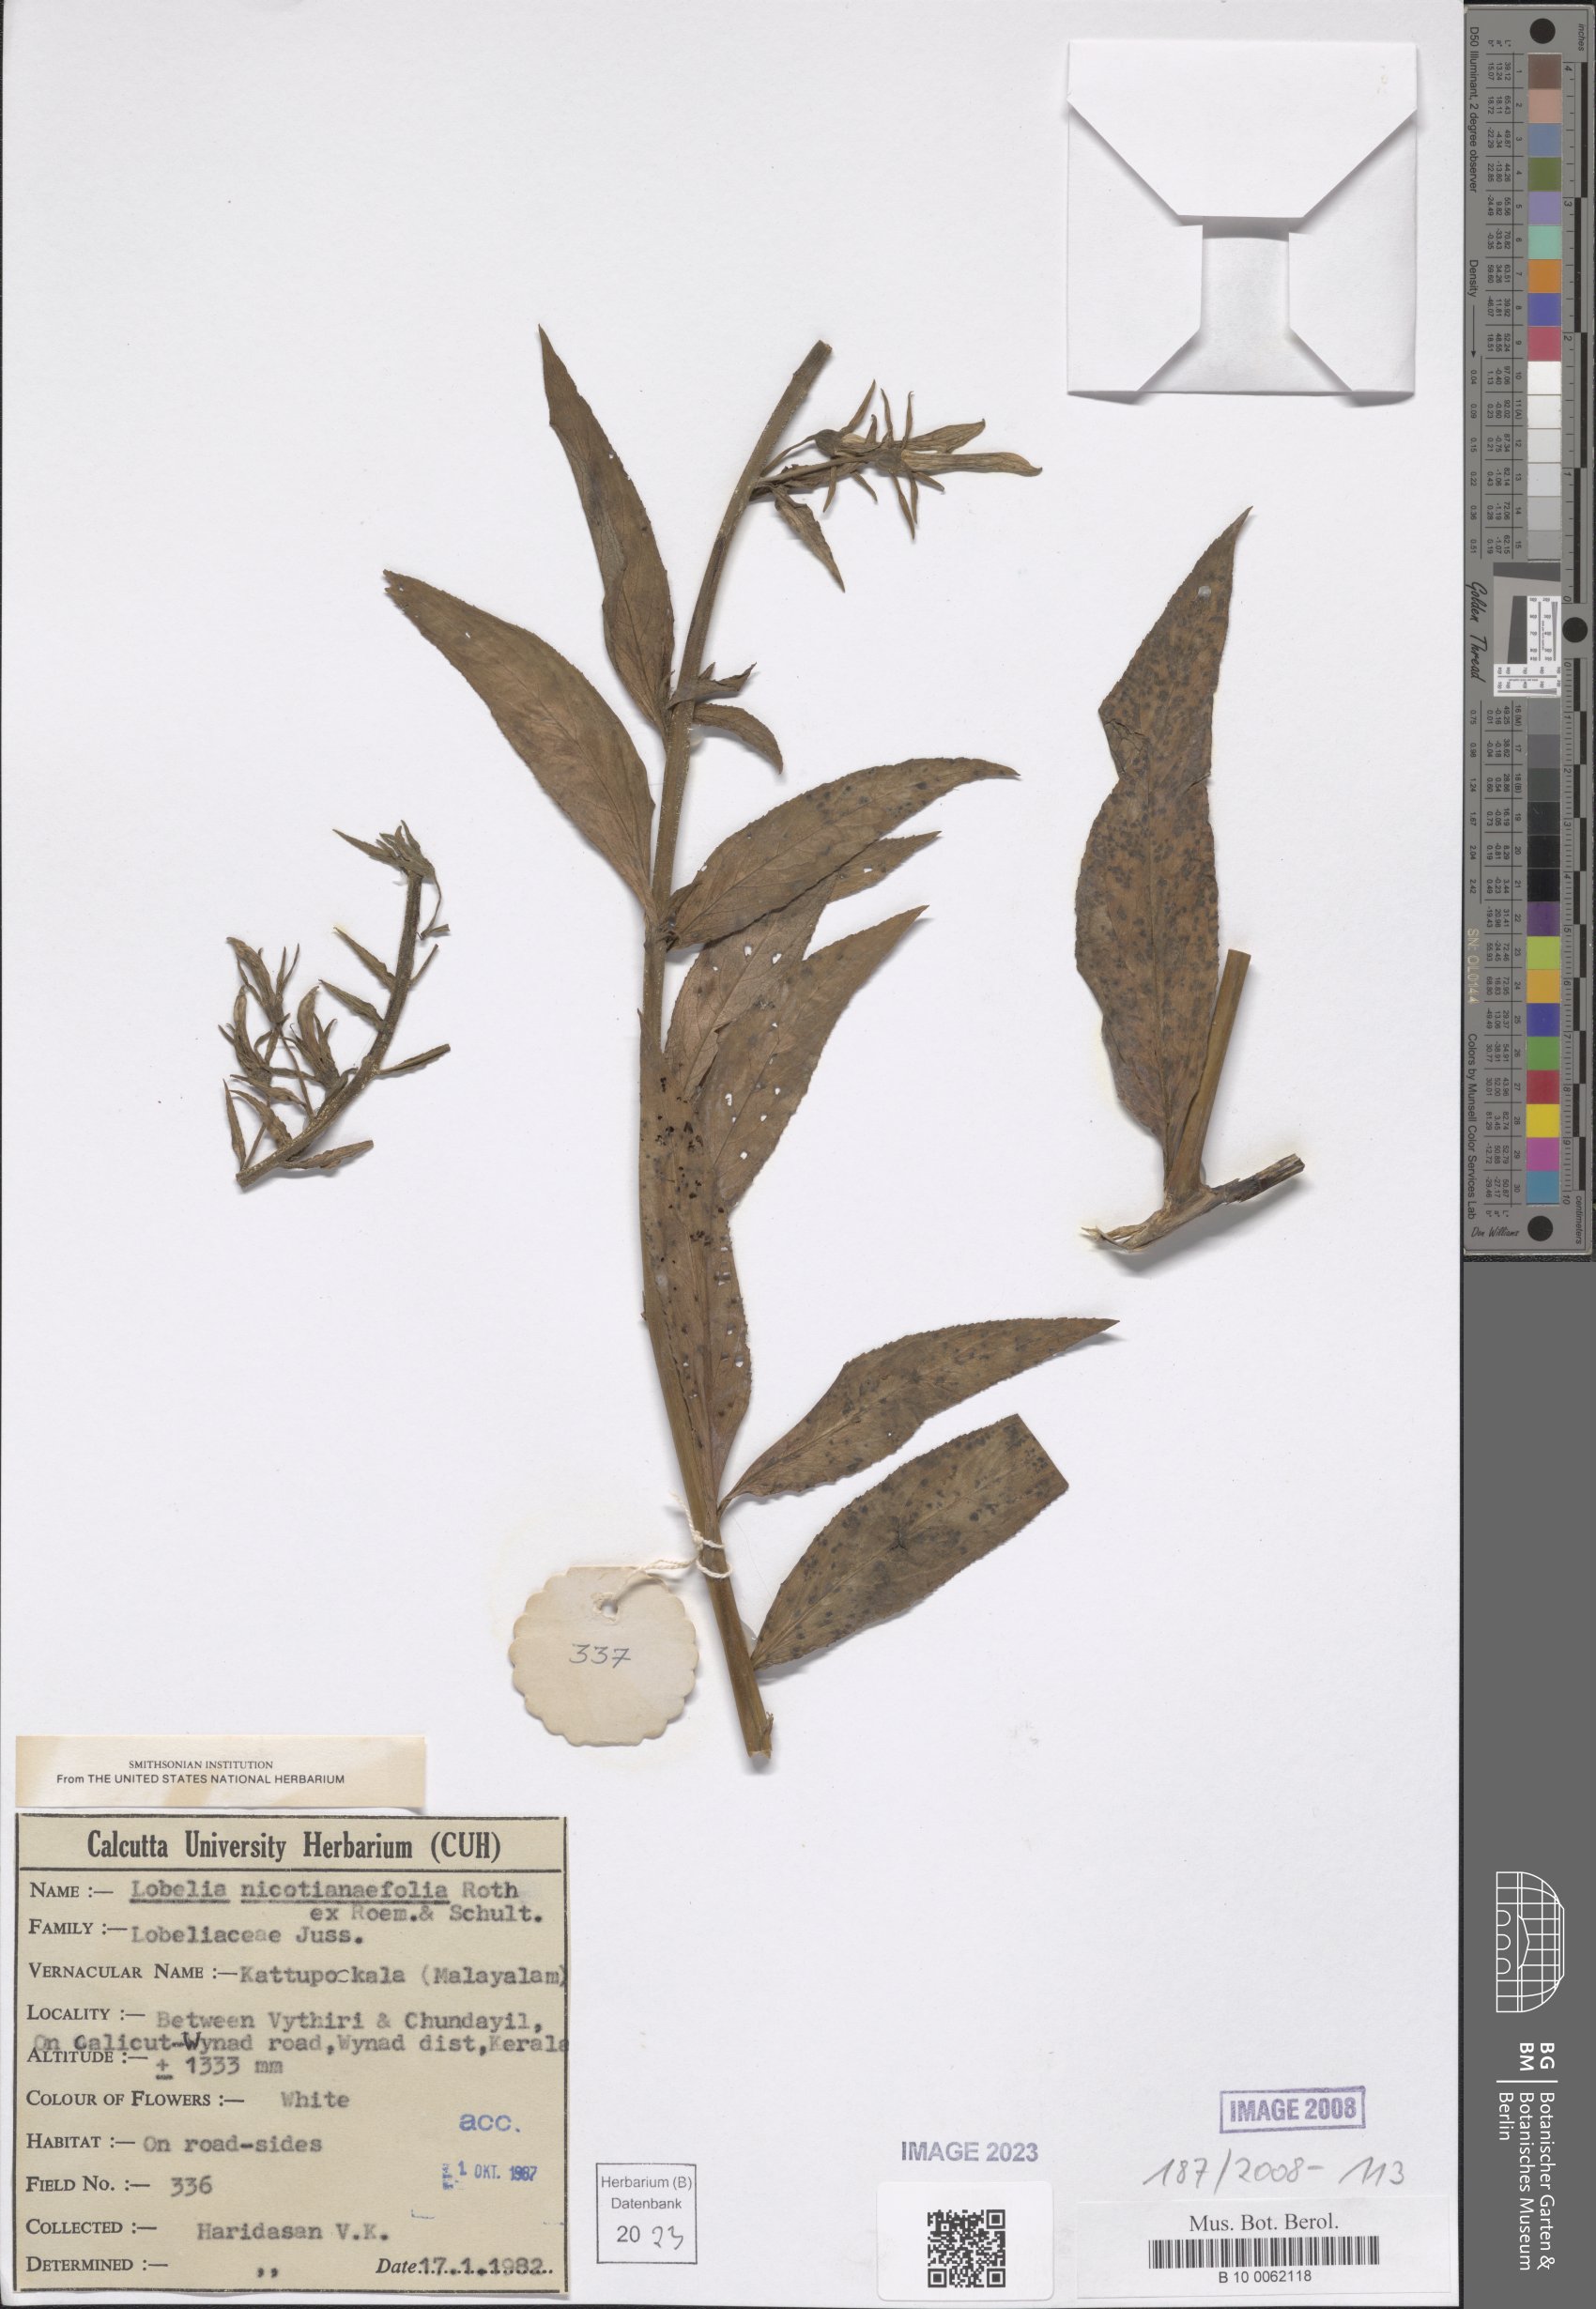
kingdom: Plantae
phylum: Tracheophyta
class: Magnoliopsida
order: Asterales
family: Campanulaceae
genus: Lobelia
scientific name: Lobelia nicotianifolia
